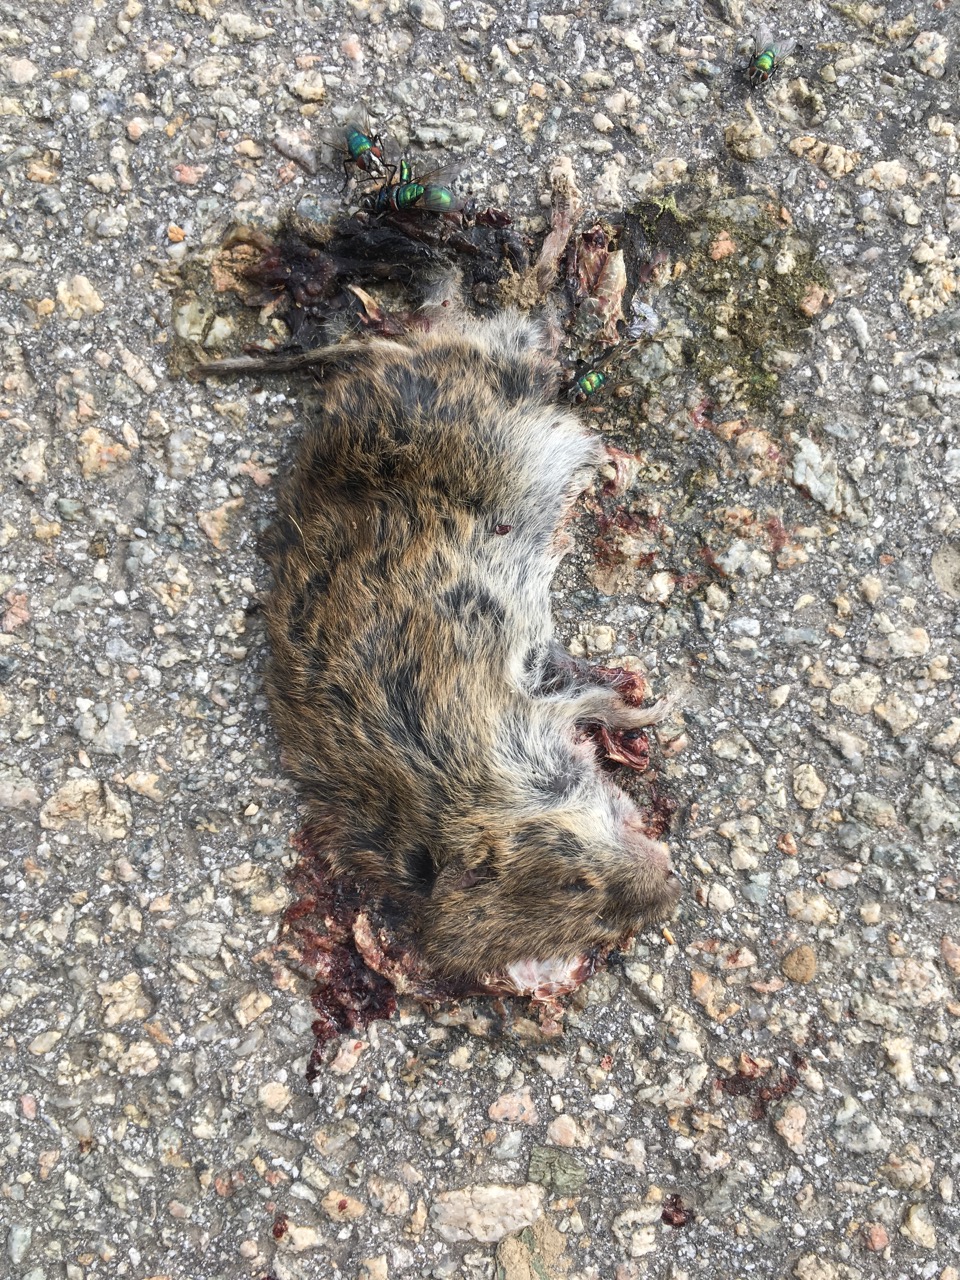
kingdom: Animalia
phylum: Chordata
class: Mammalia
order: Rodentia
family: Cricetidae
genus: Microtus
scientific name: Microtus
